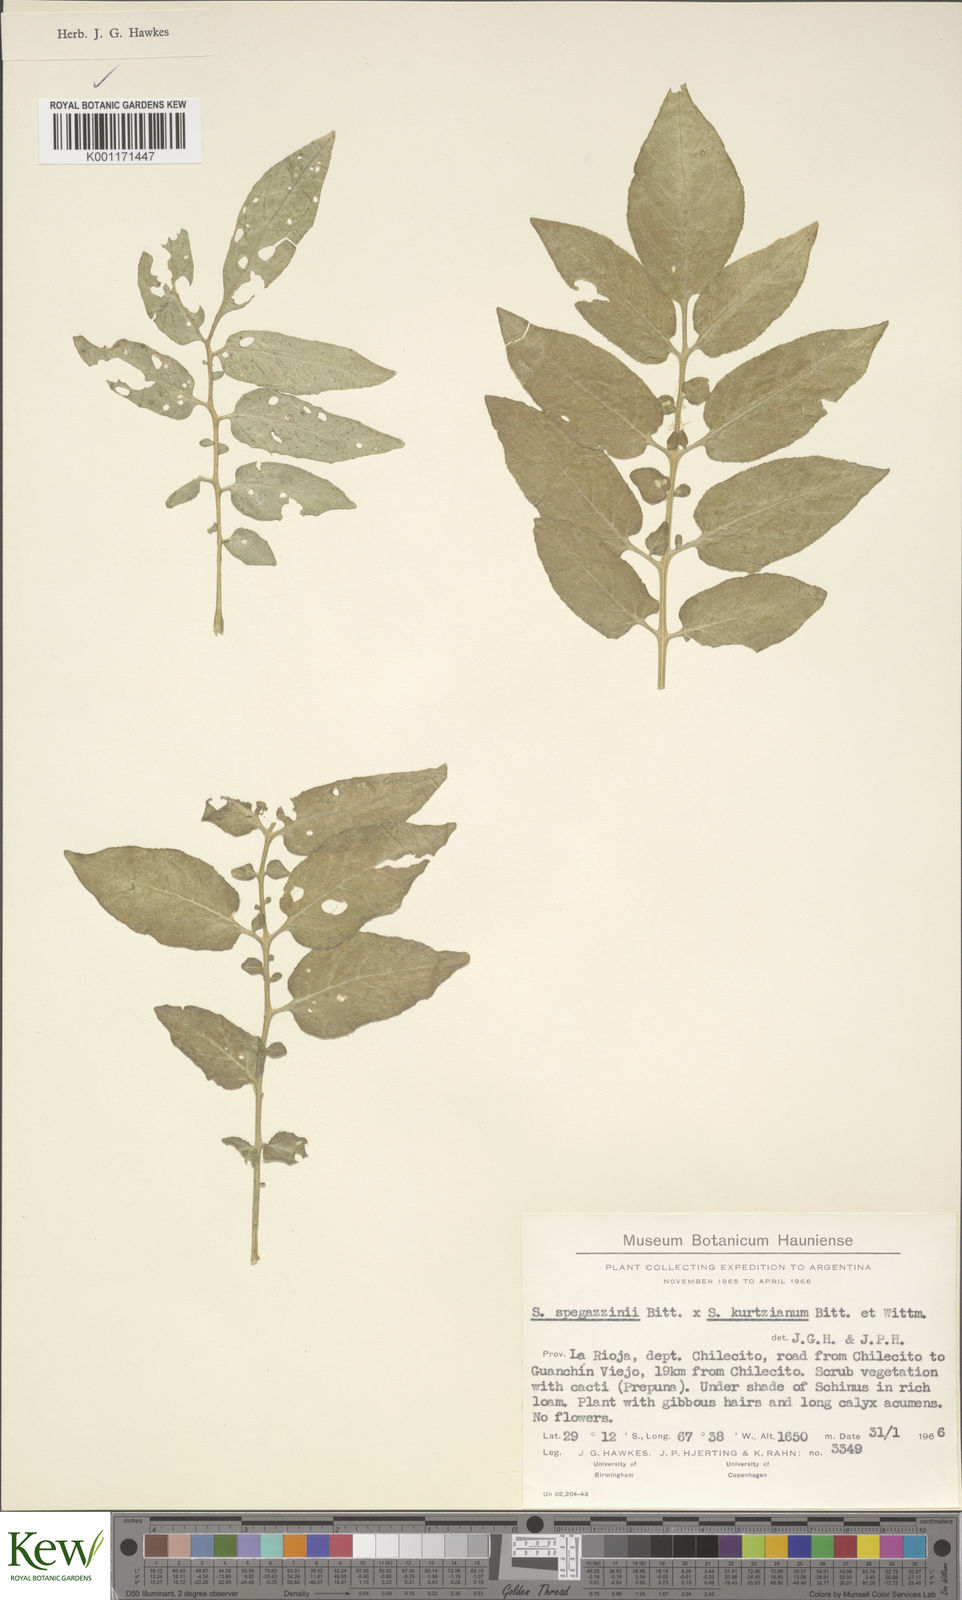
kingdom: Plantae
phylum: Tracheophyta
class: Magnoliopsida
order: Solanales
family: Solanaceae
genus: Solanum
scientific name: Solanum brevicaule
